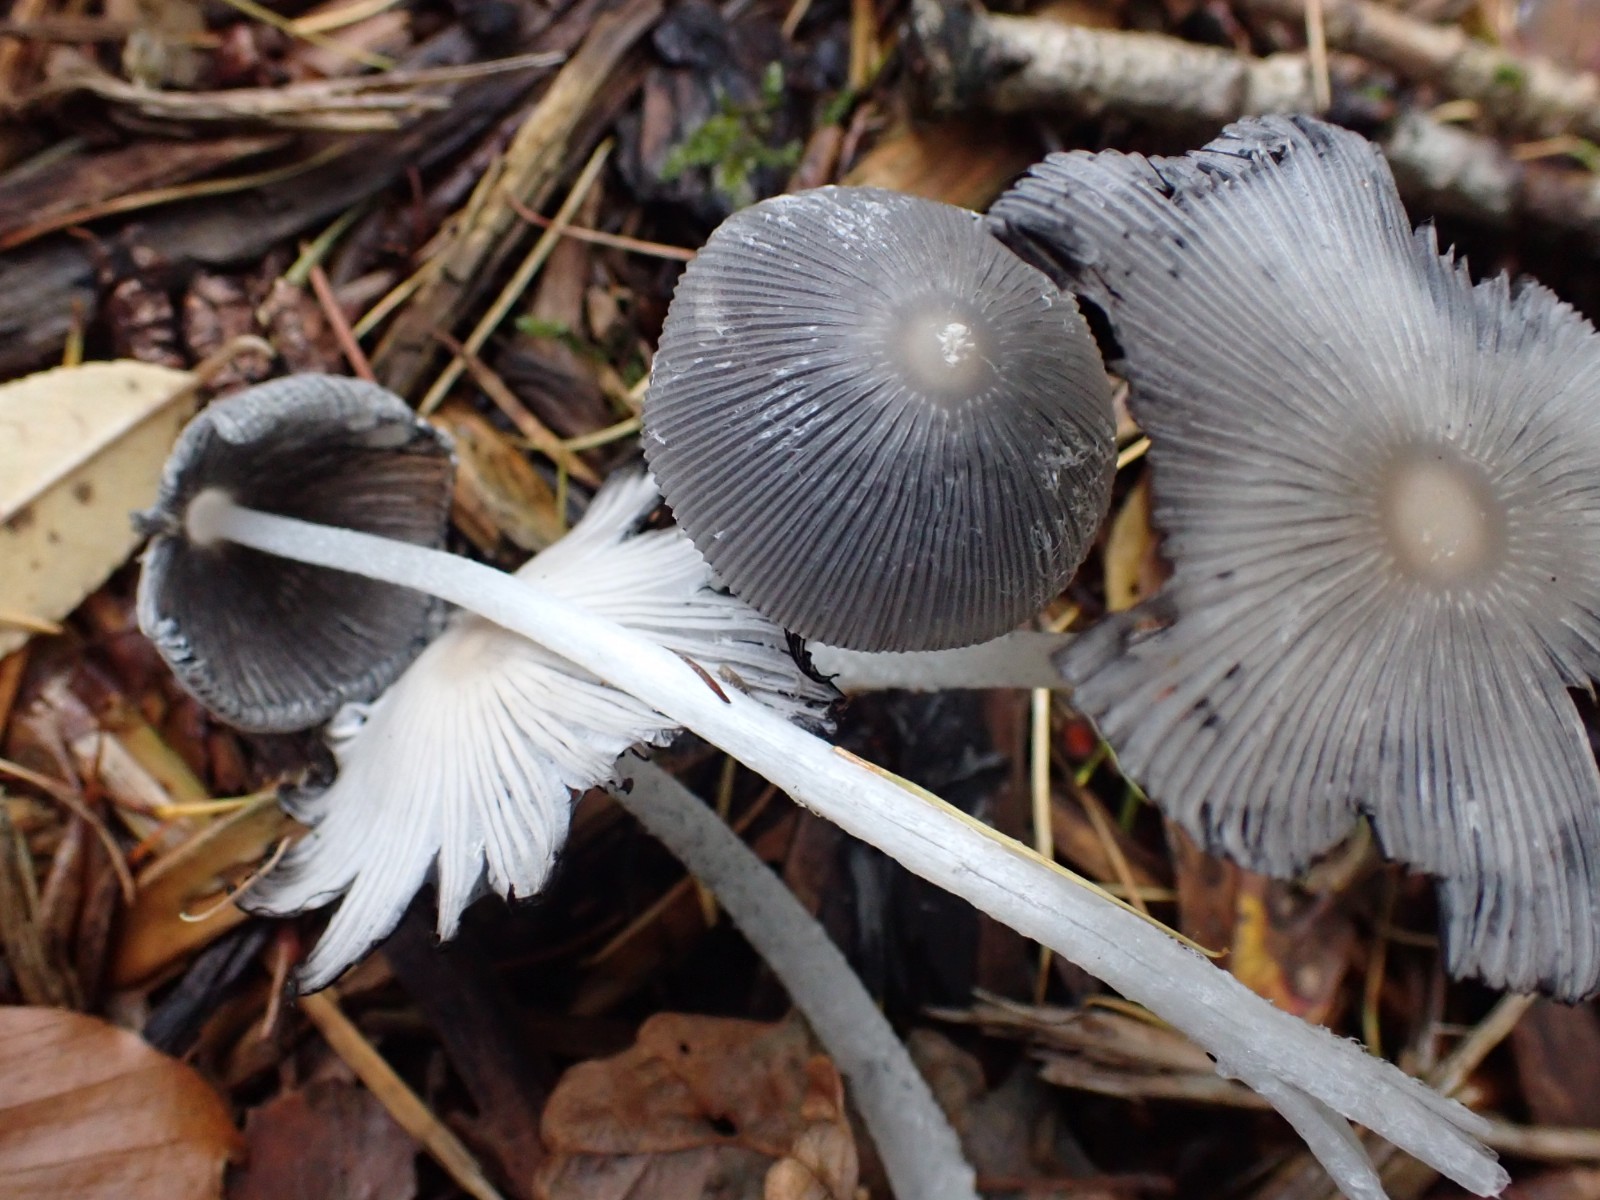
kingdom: Fungi
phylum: Basidiomycota
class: Agaricomycetes
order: Agaricales
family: Psathyrellaceae
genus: Coprinopsis
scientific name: Coprinopsis lagopus
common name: dunstokket blækhat
